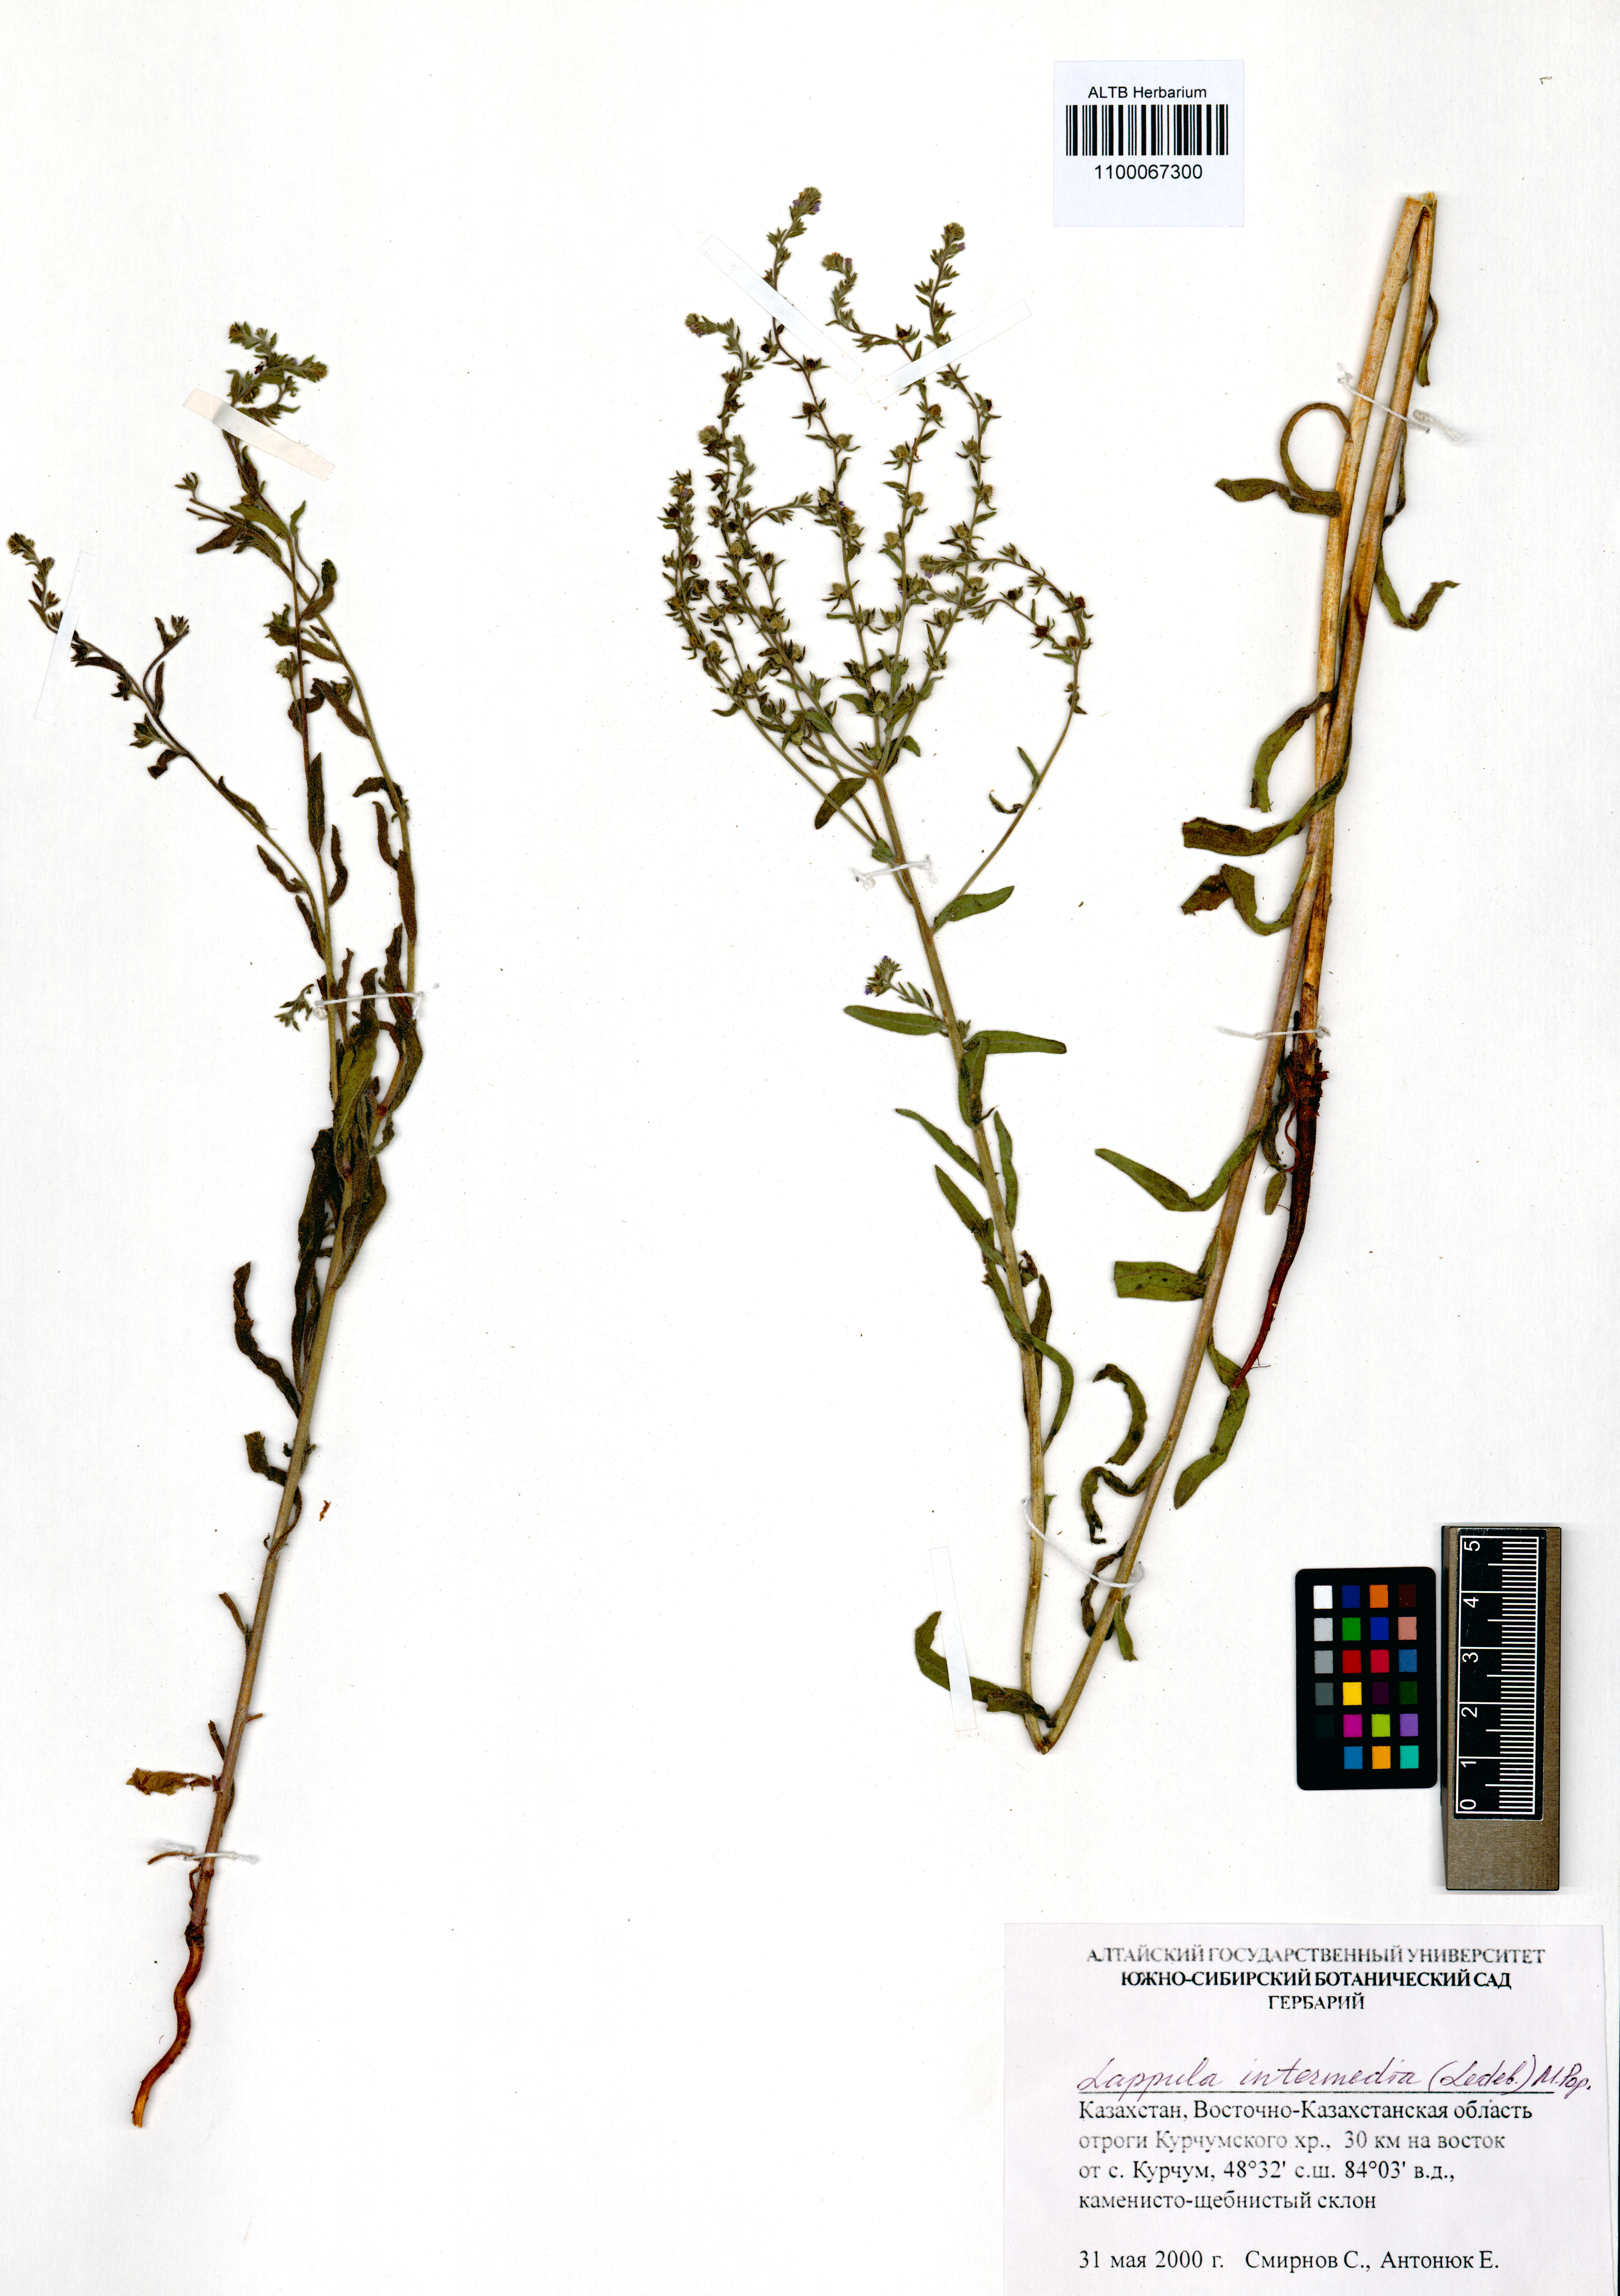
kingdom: Plantae
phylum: Tracheophyta
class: Magnoliopsida
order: Boraginales
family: Boraginaceae
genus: Lappula
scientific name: Lappula intermedia
